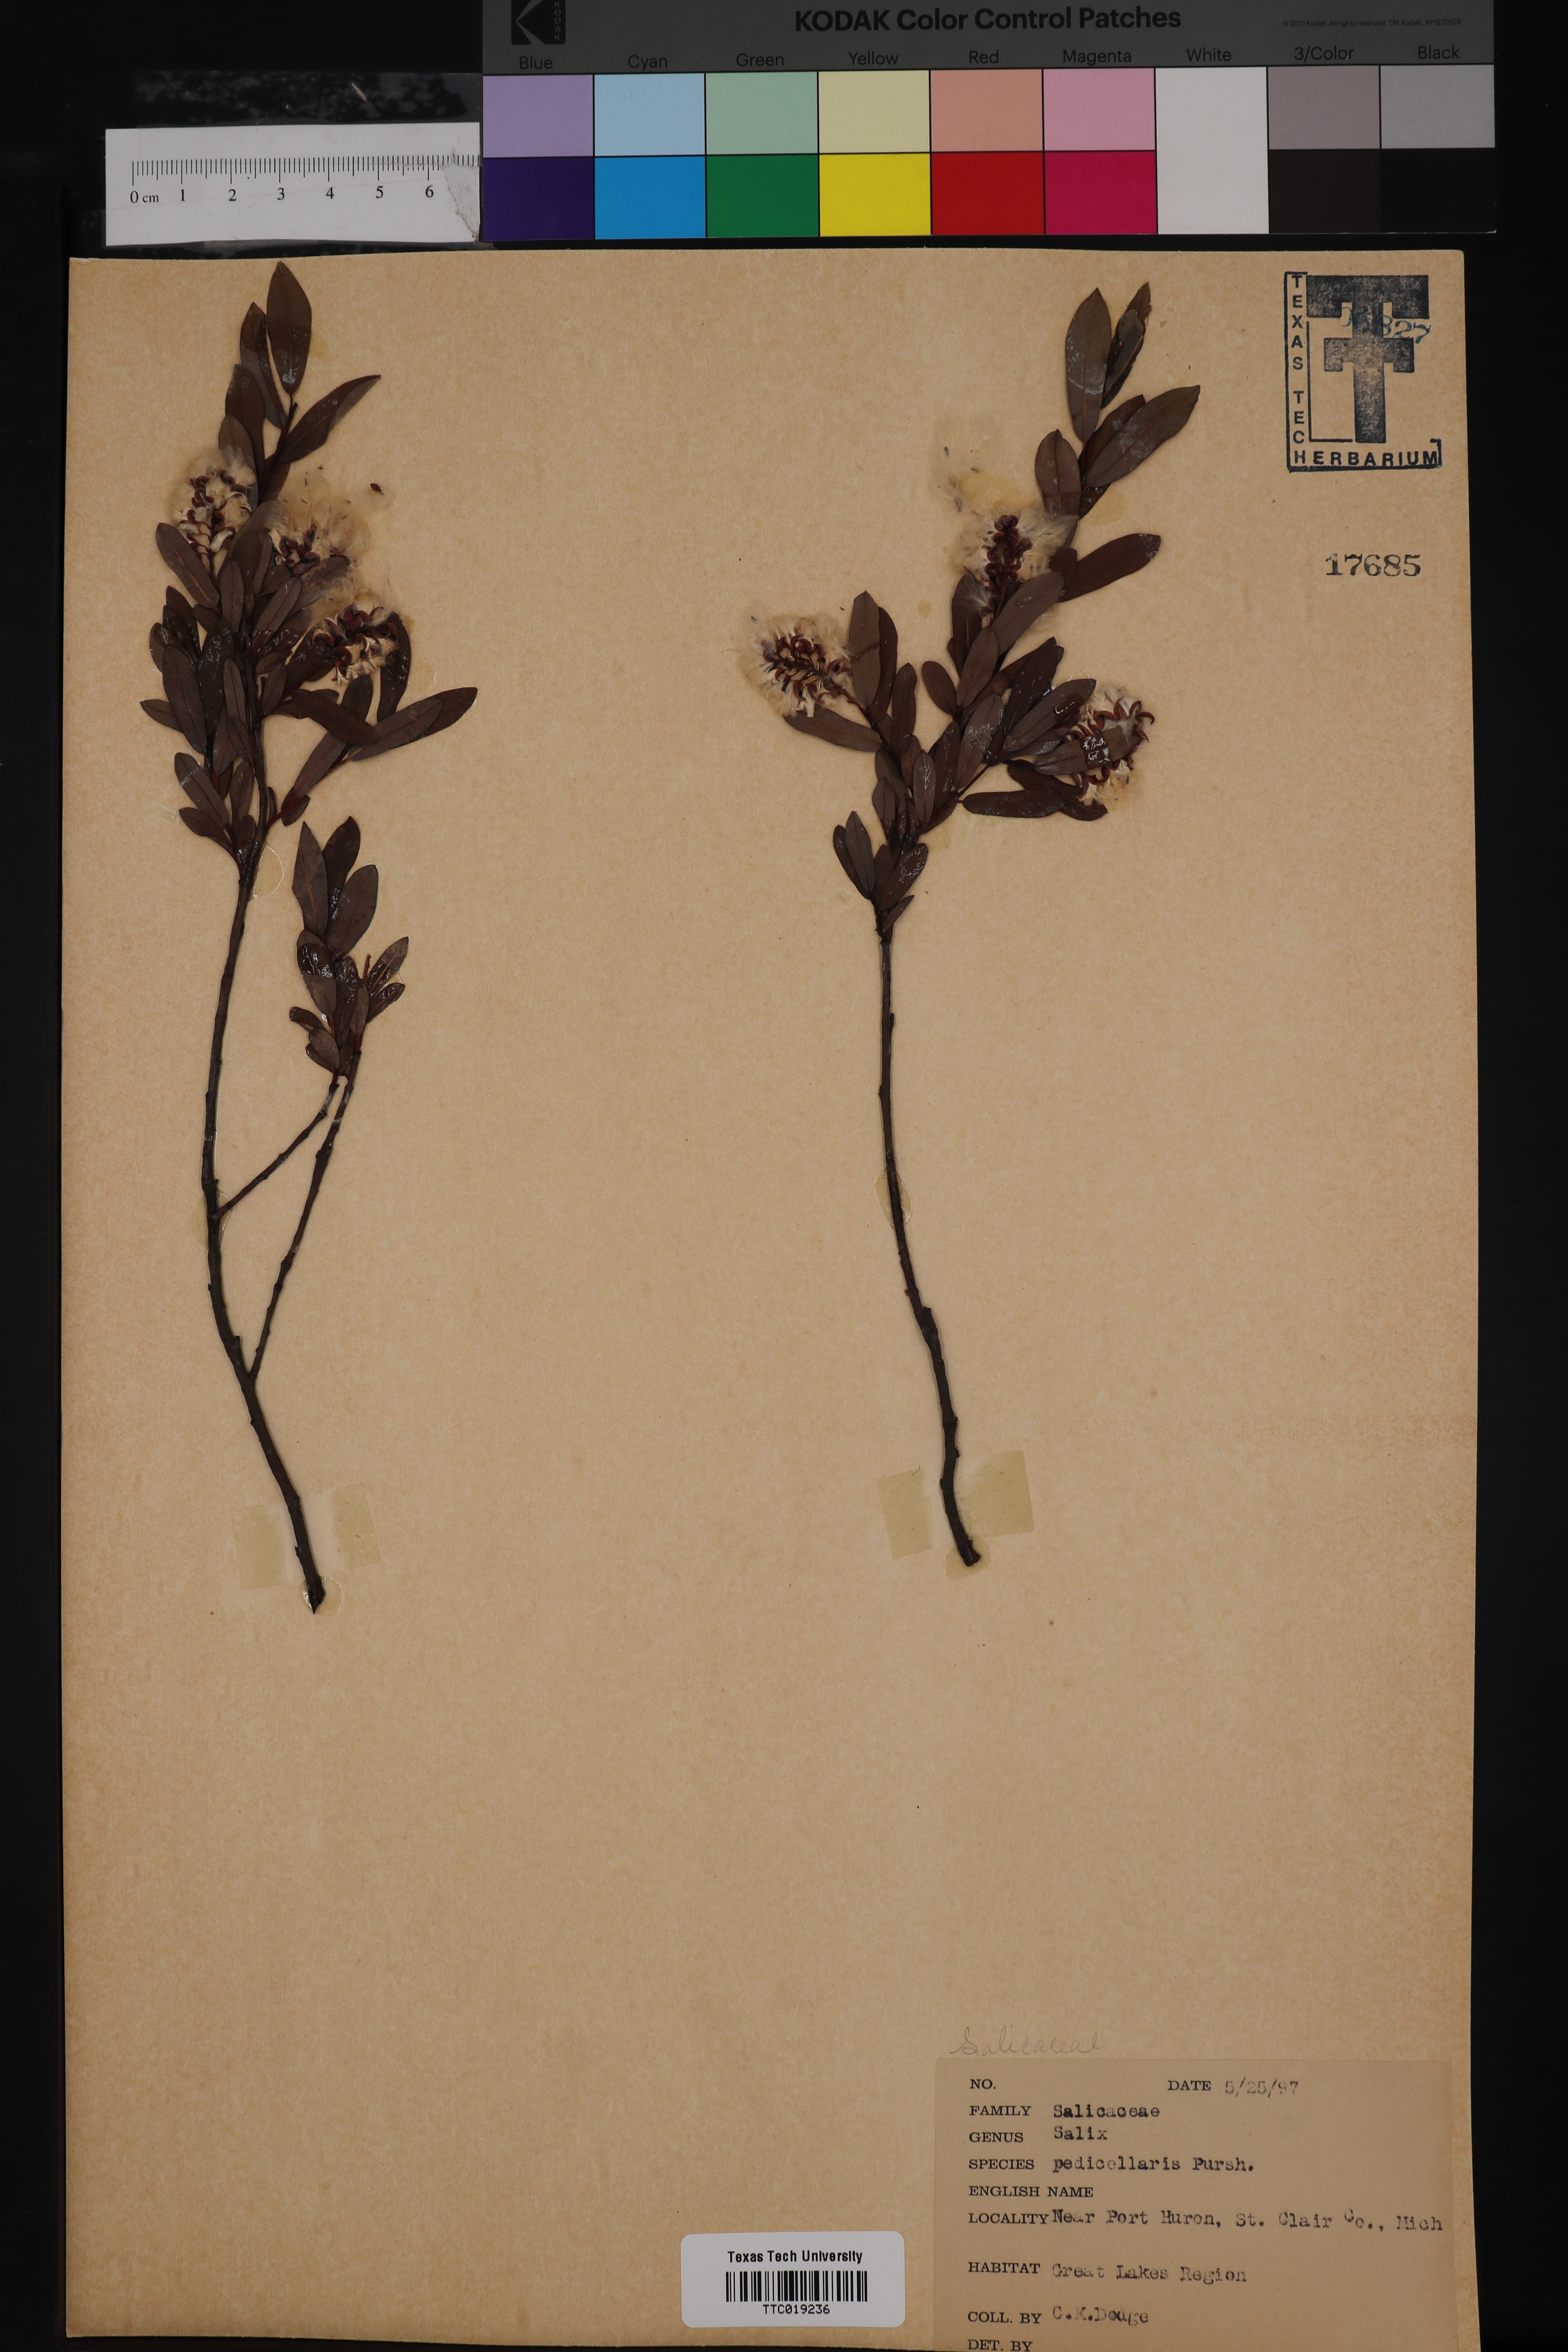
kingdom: Plantae
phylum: Tracheophyta
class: Magnoliopsida
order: Malpighiales
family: Salicaceae
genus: Salix
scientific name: Salix pedicellaris
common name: Bog willow
